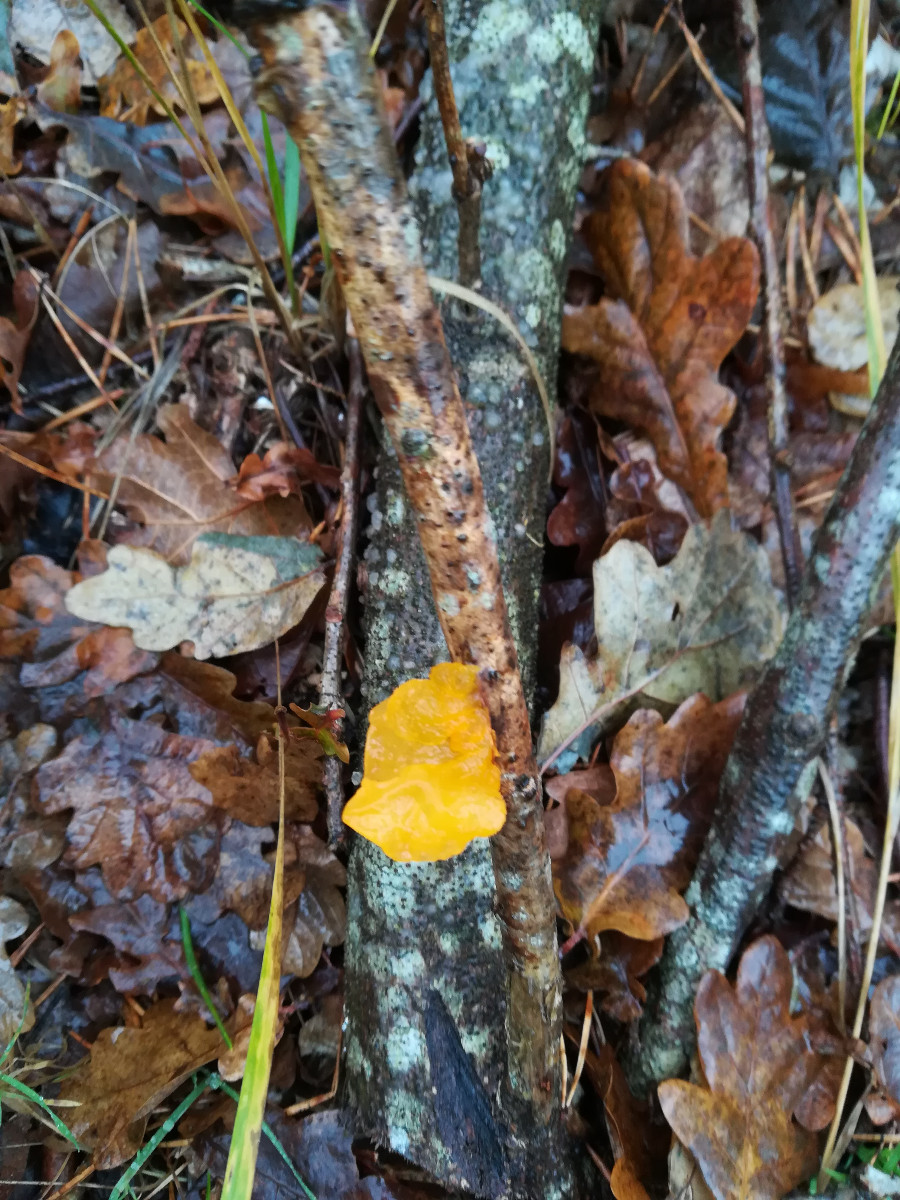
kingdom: Fungi
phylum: Basidiomycota
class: Tremellomycetes
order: Tremellales
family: Tremellaceae
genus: Tremella
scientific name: Tremella mesenterica
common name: gul bævresvamp
